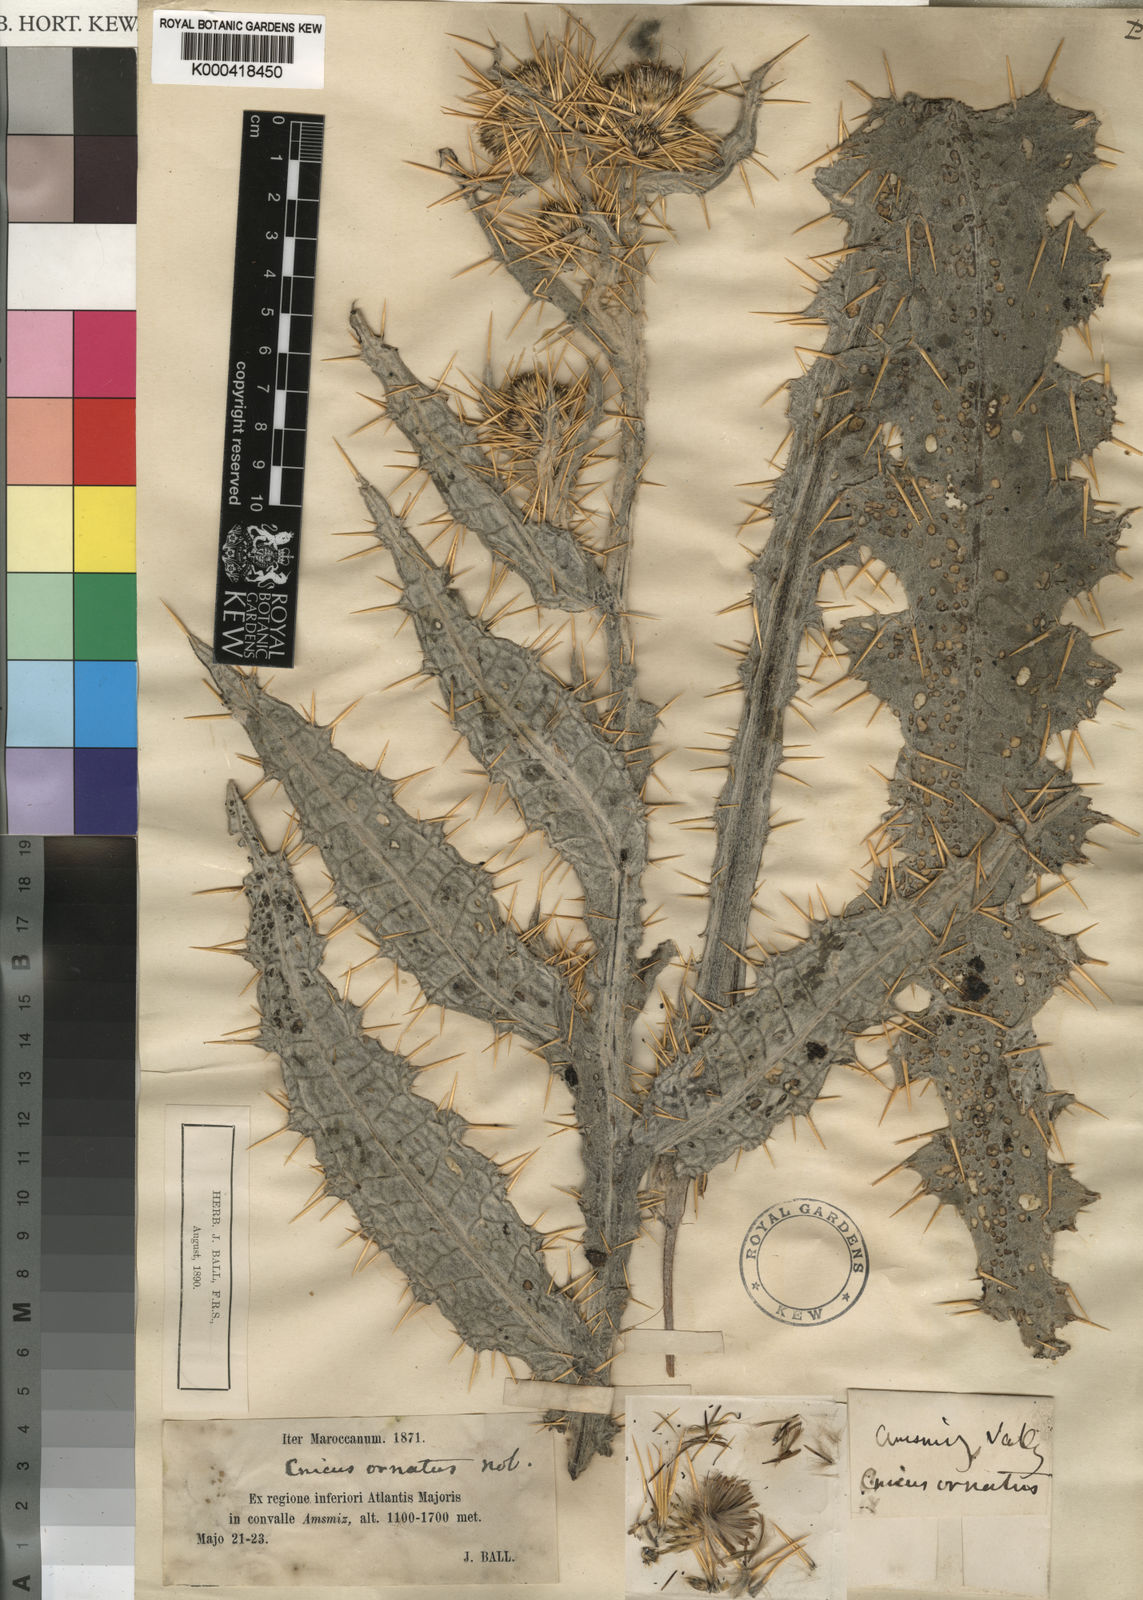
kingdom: Plantae
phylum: Tracheophyta
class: Magnoliopsida
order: Asterales
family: Asteraceae
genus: Cirsium
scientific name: Cirsium
